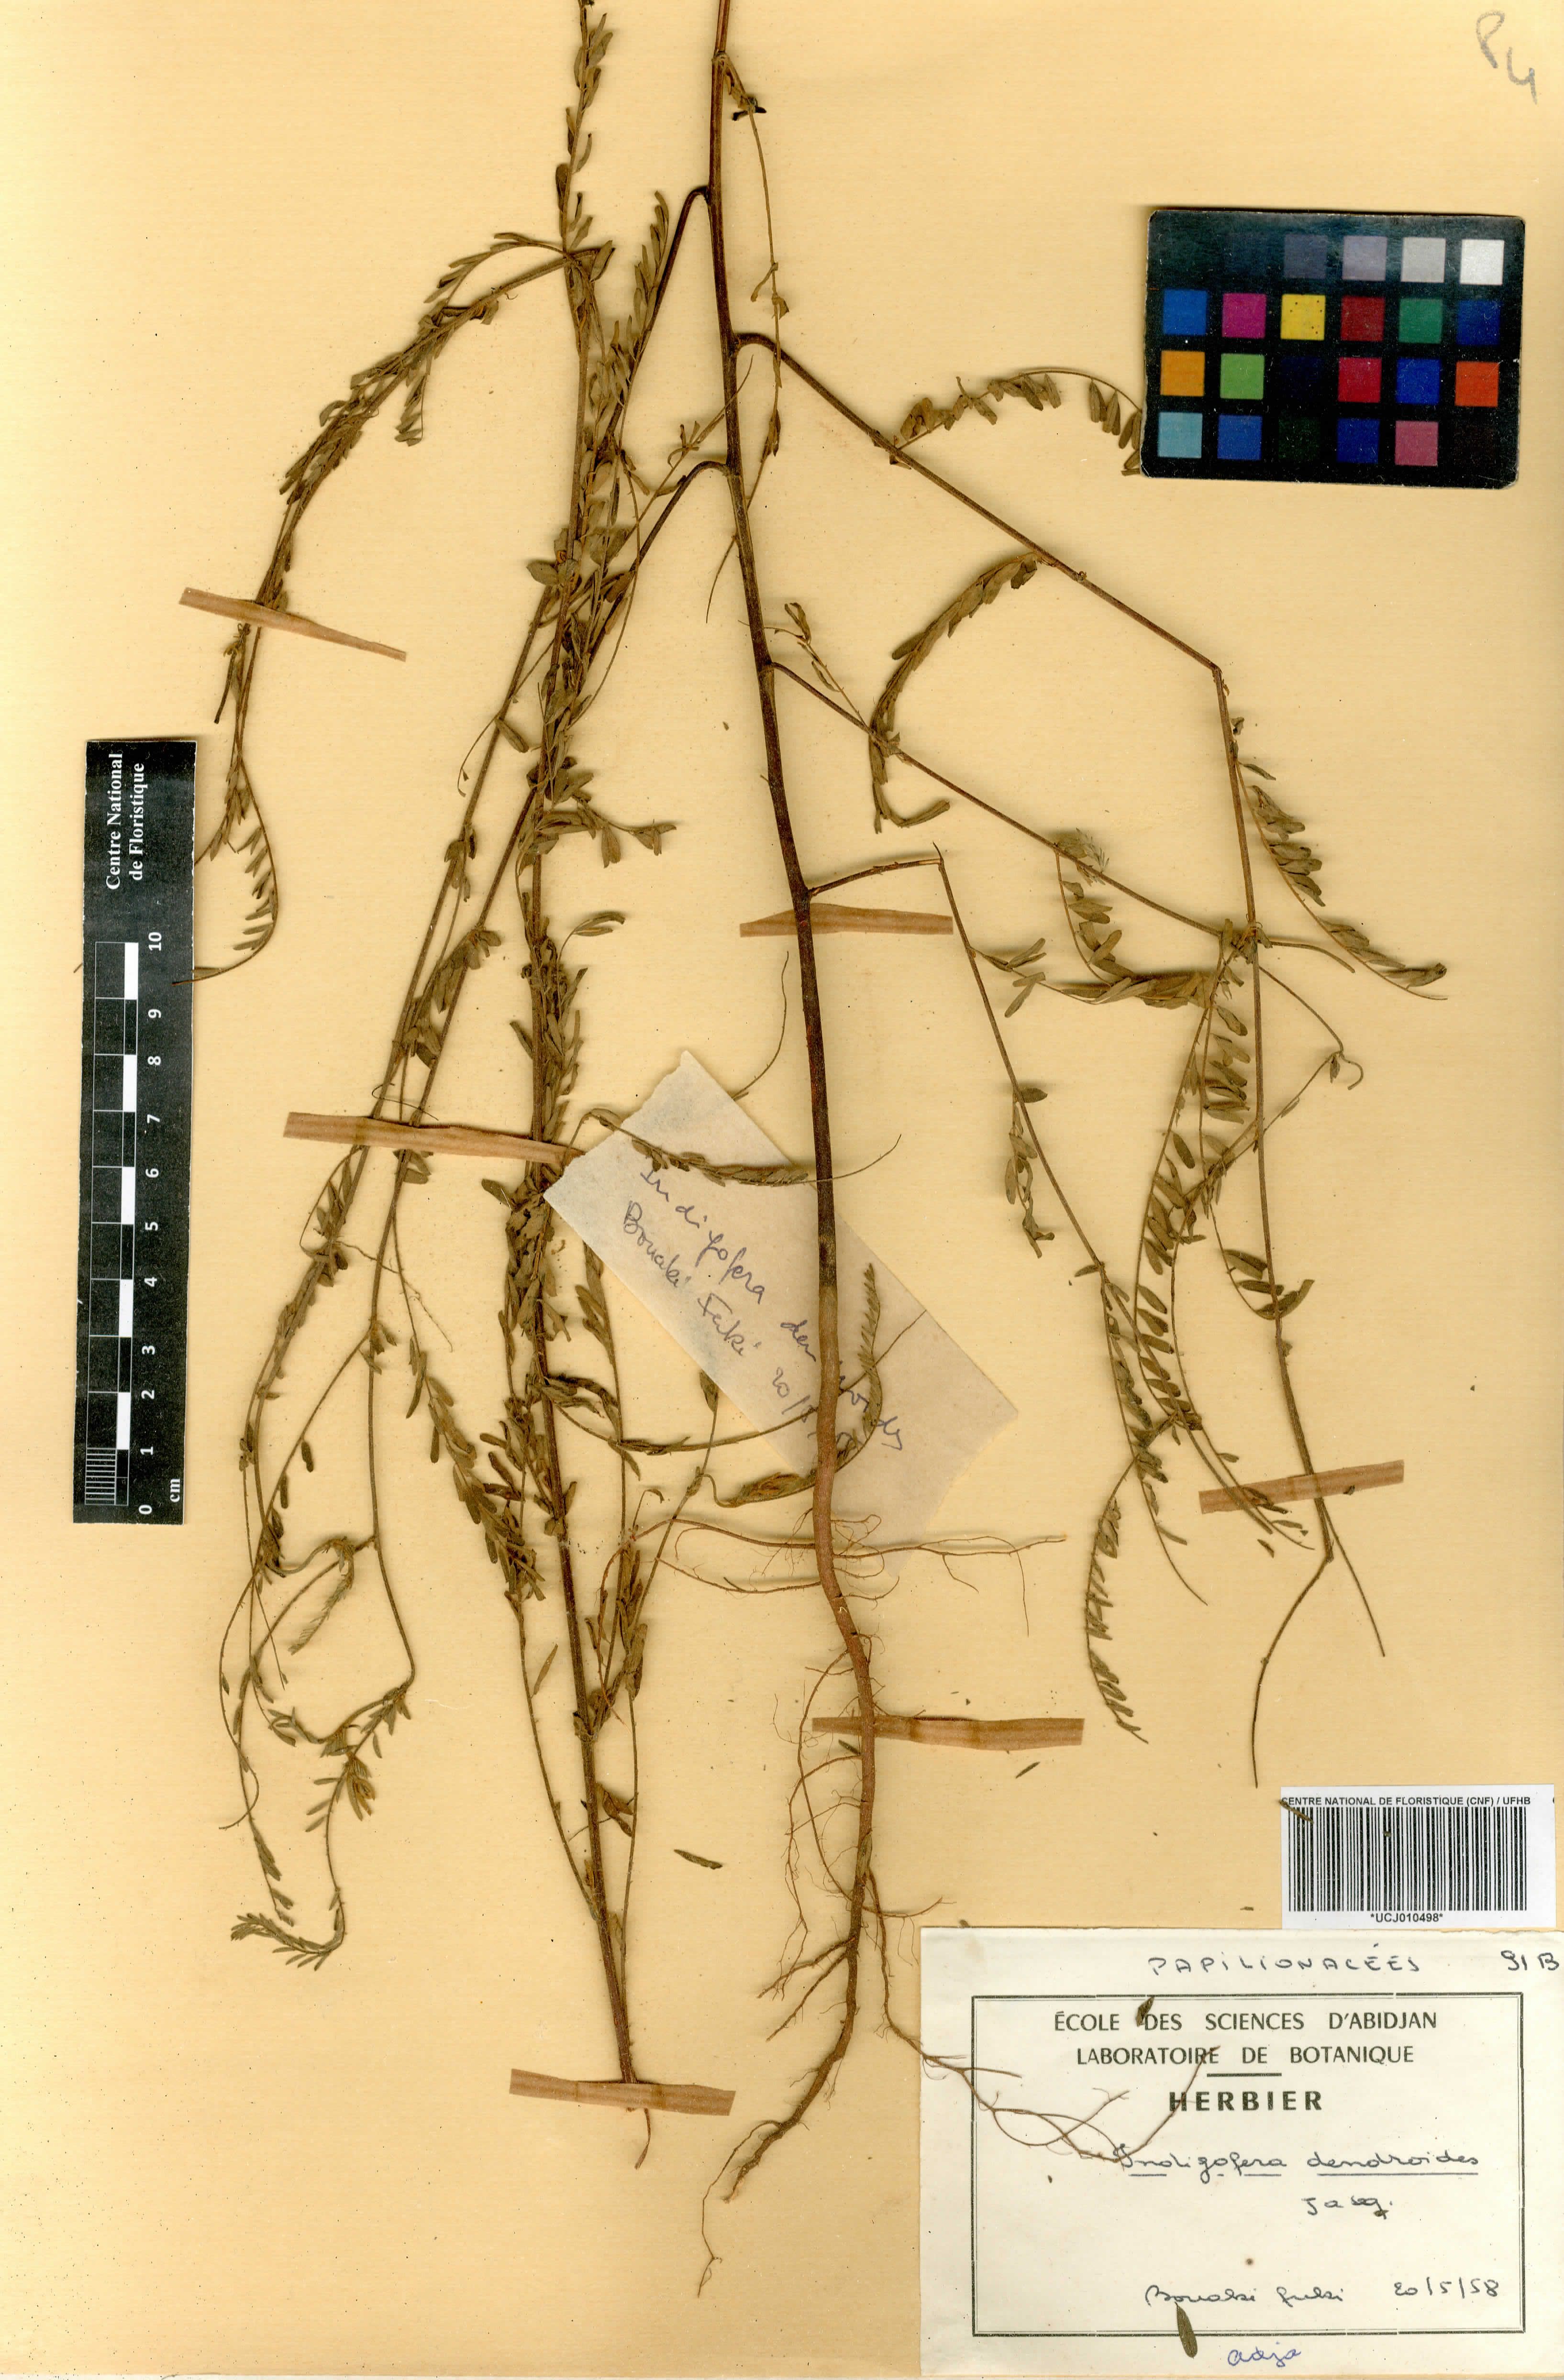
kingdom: Plantae
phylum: Tracheophyta
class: Magnoliopsida
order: Fabales
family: Fabaceae
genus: Indigofera
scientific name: Indigofera dendroides
